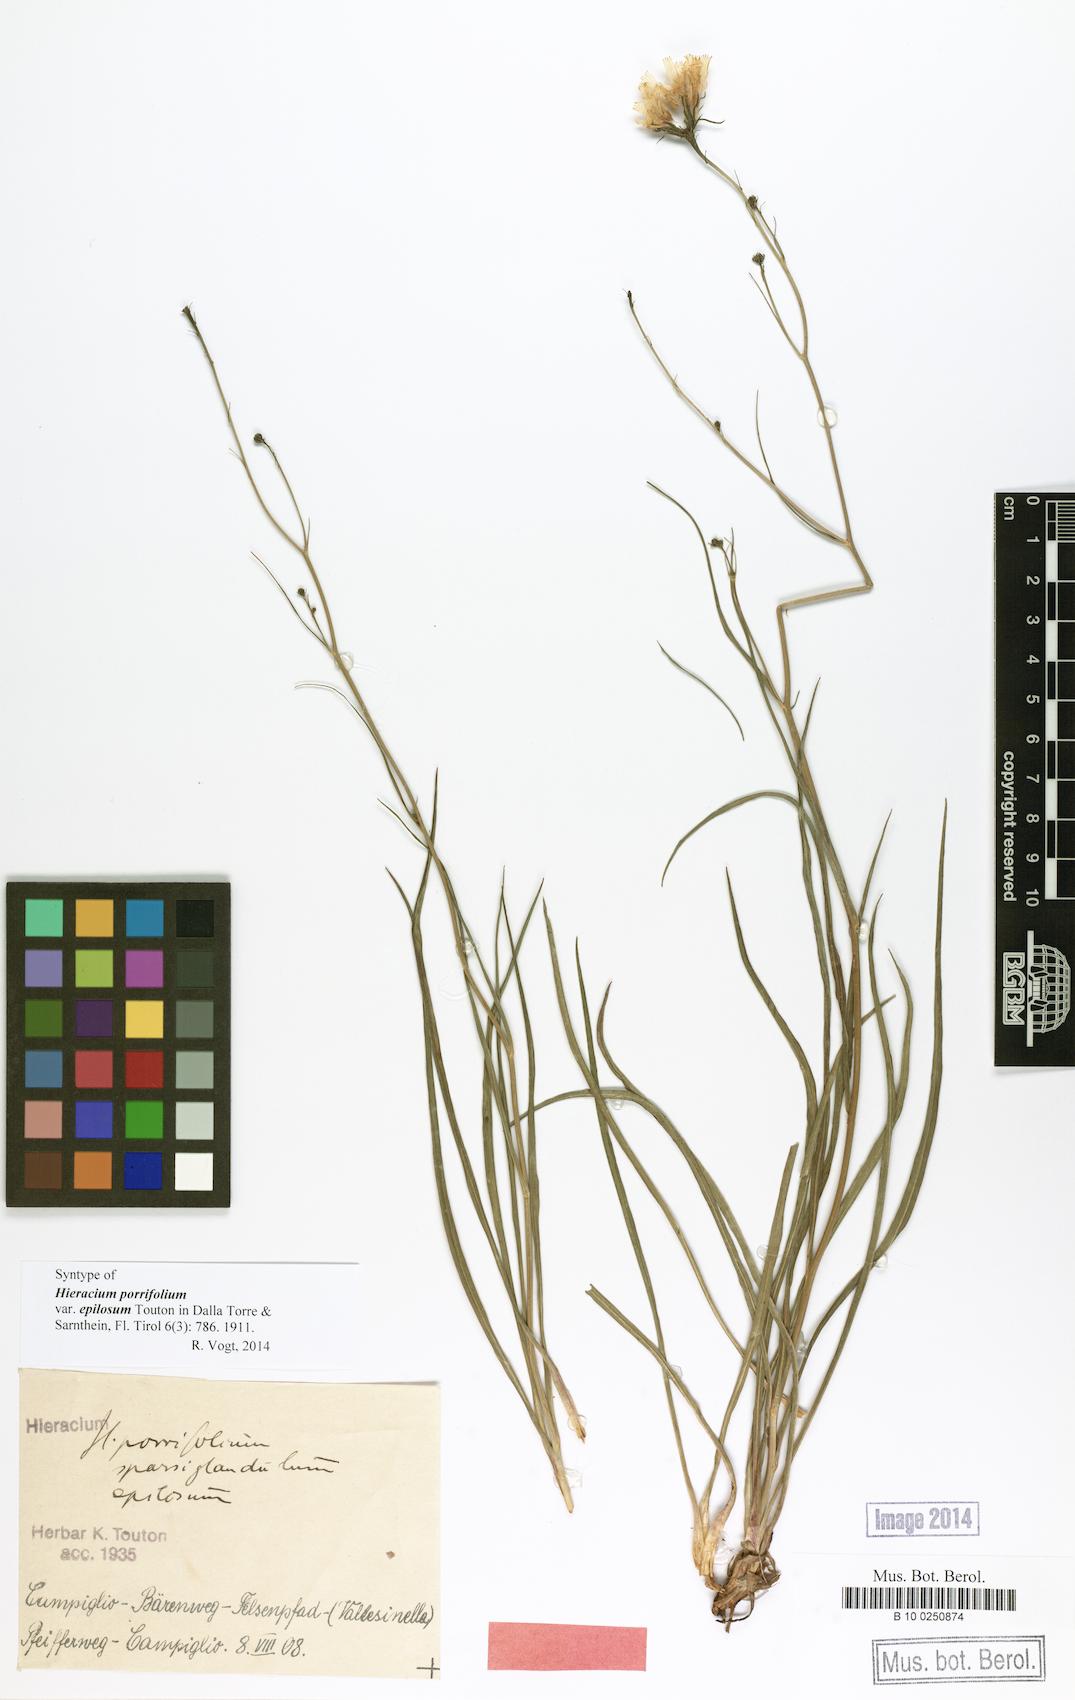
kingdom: Plantae
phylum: Tracheophyta
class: Magnoliopsida
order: Asterales
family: Asteraceae
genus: Hieracium
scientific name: Hieracium porrifolium
